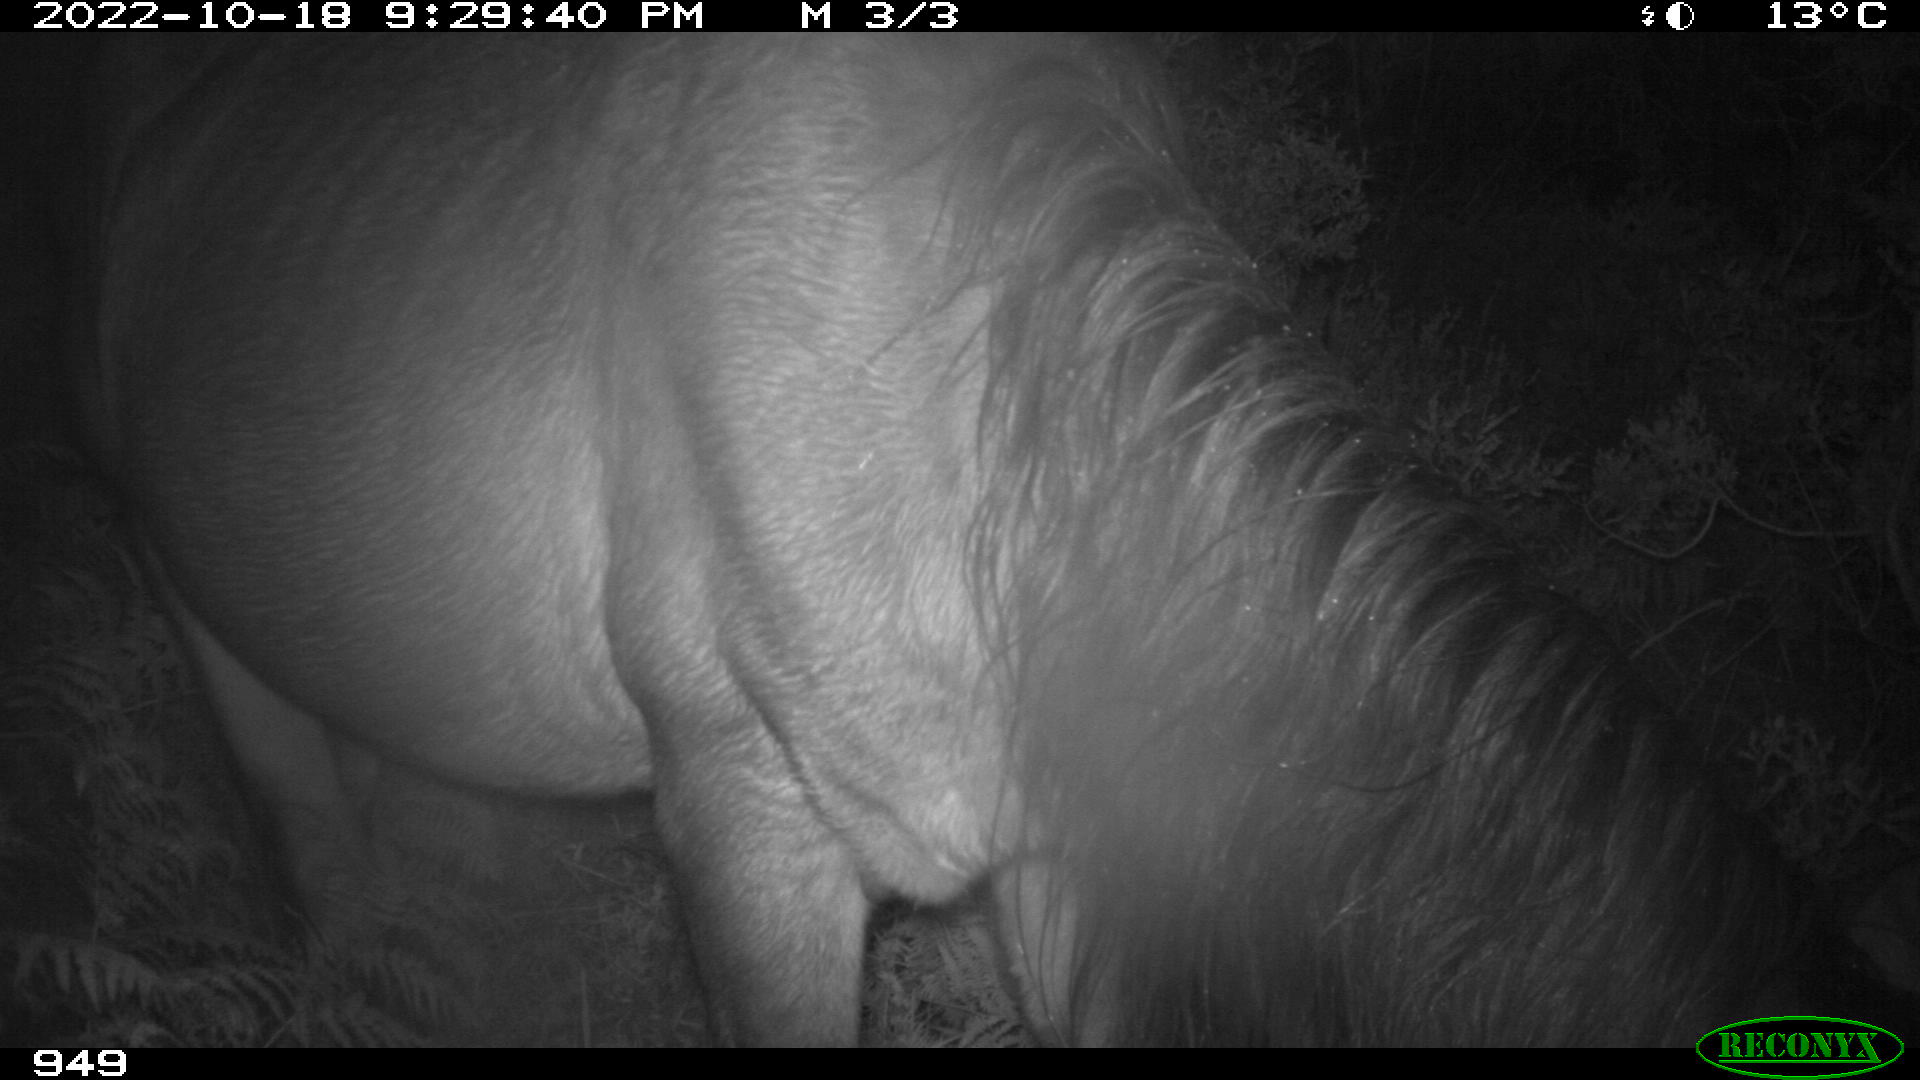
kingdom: Animalia
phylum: Chordata
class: Mammalia
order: Perissodactyla
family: Equidae
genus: Equus
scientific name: Equus caballus
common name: Horse
